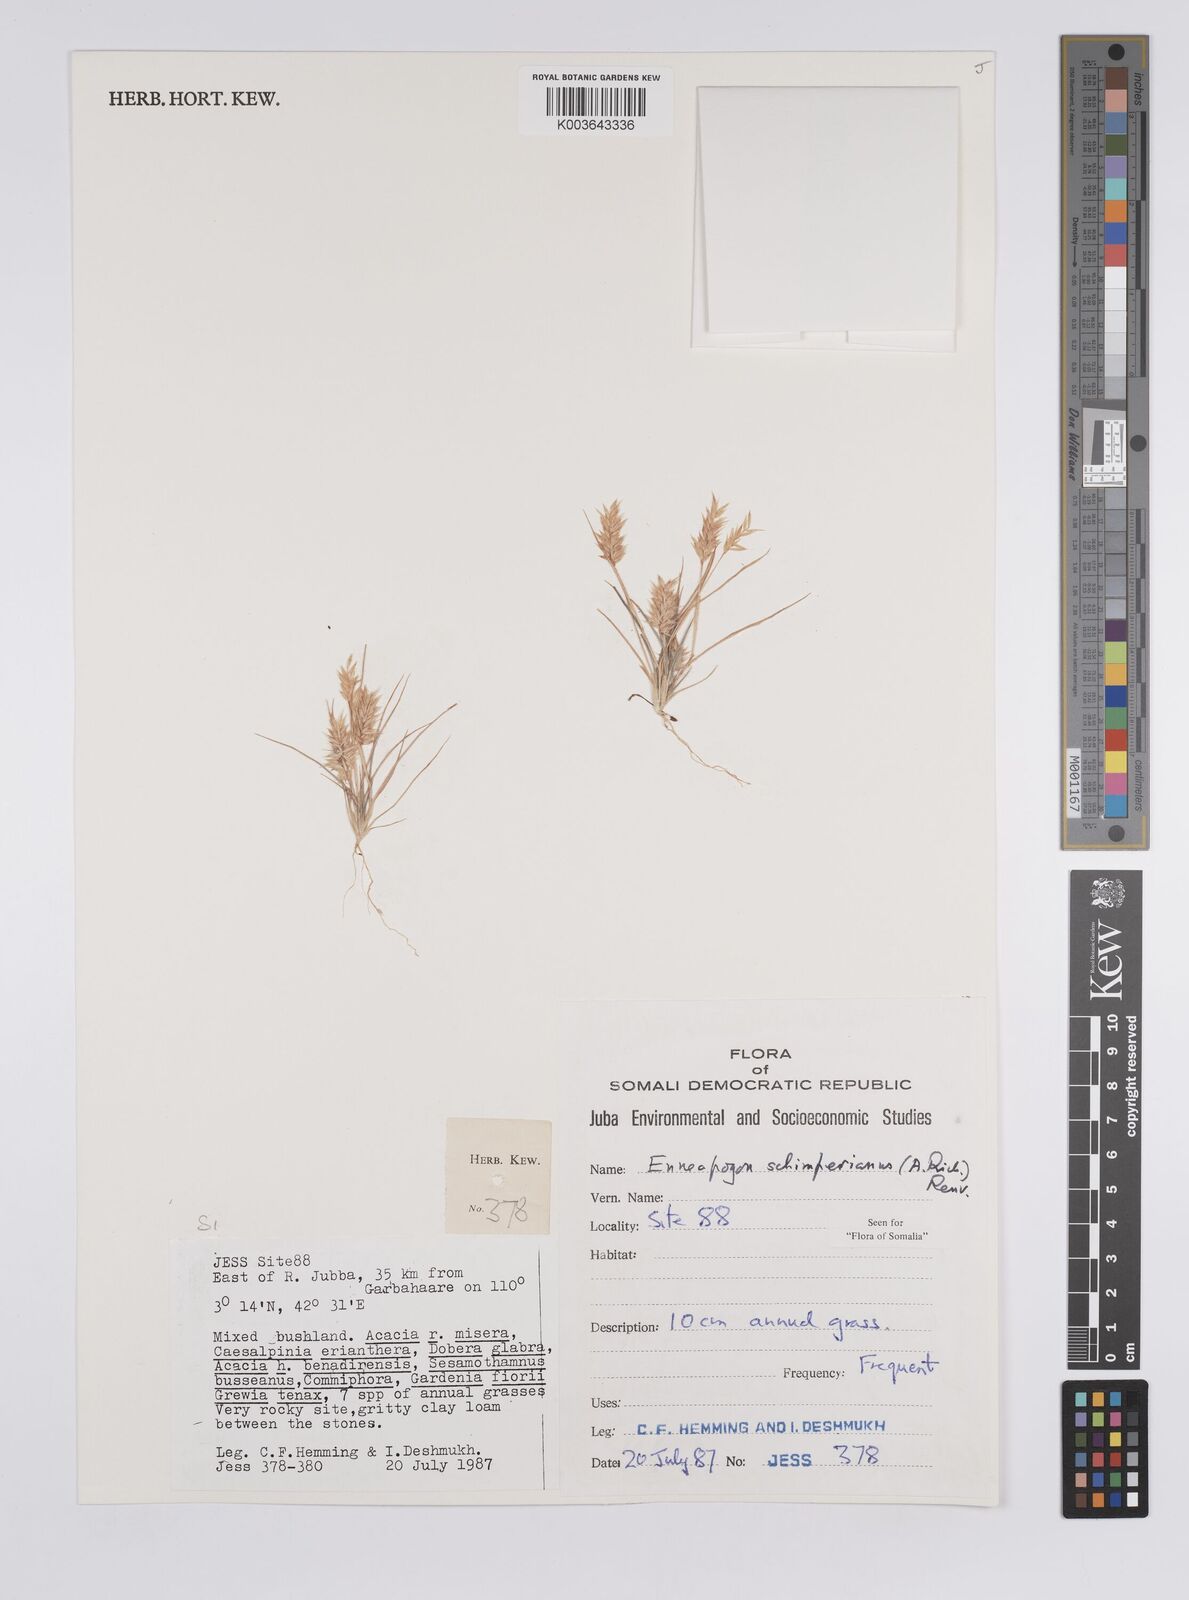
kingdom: Plantae
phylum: Tracheophyta
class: Liliopsida
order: Poales
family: Poaceae
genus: Enneapogon
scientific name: Enneapogon persicus
